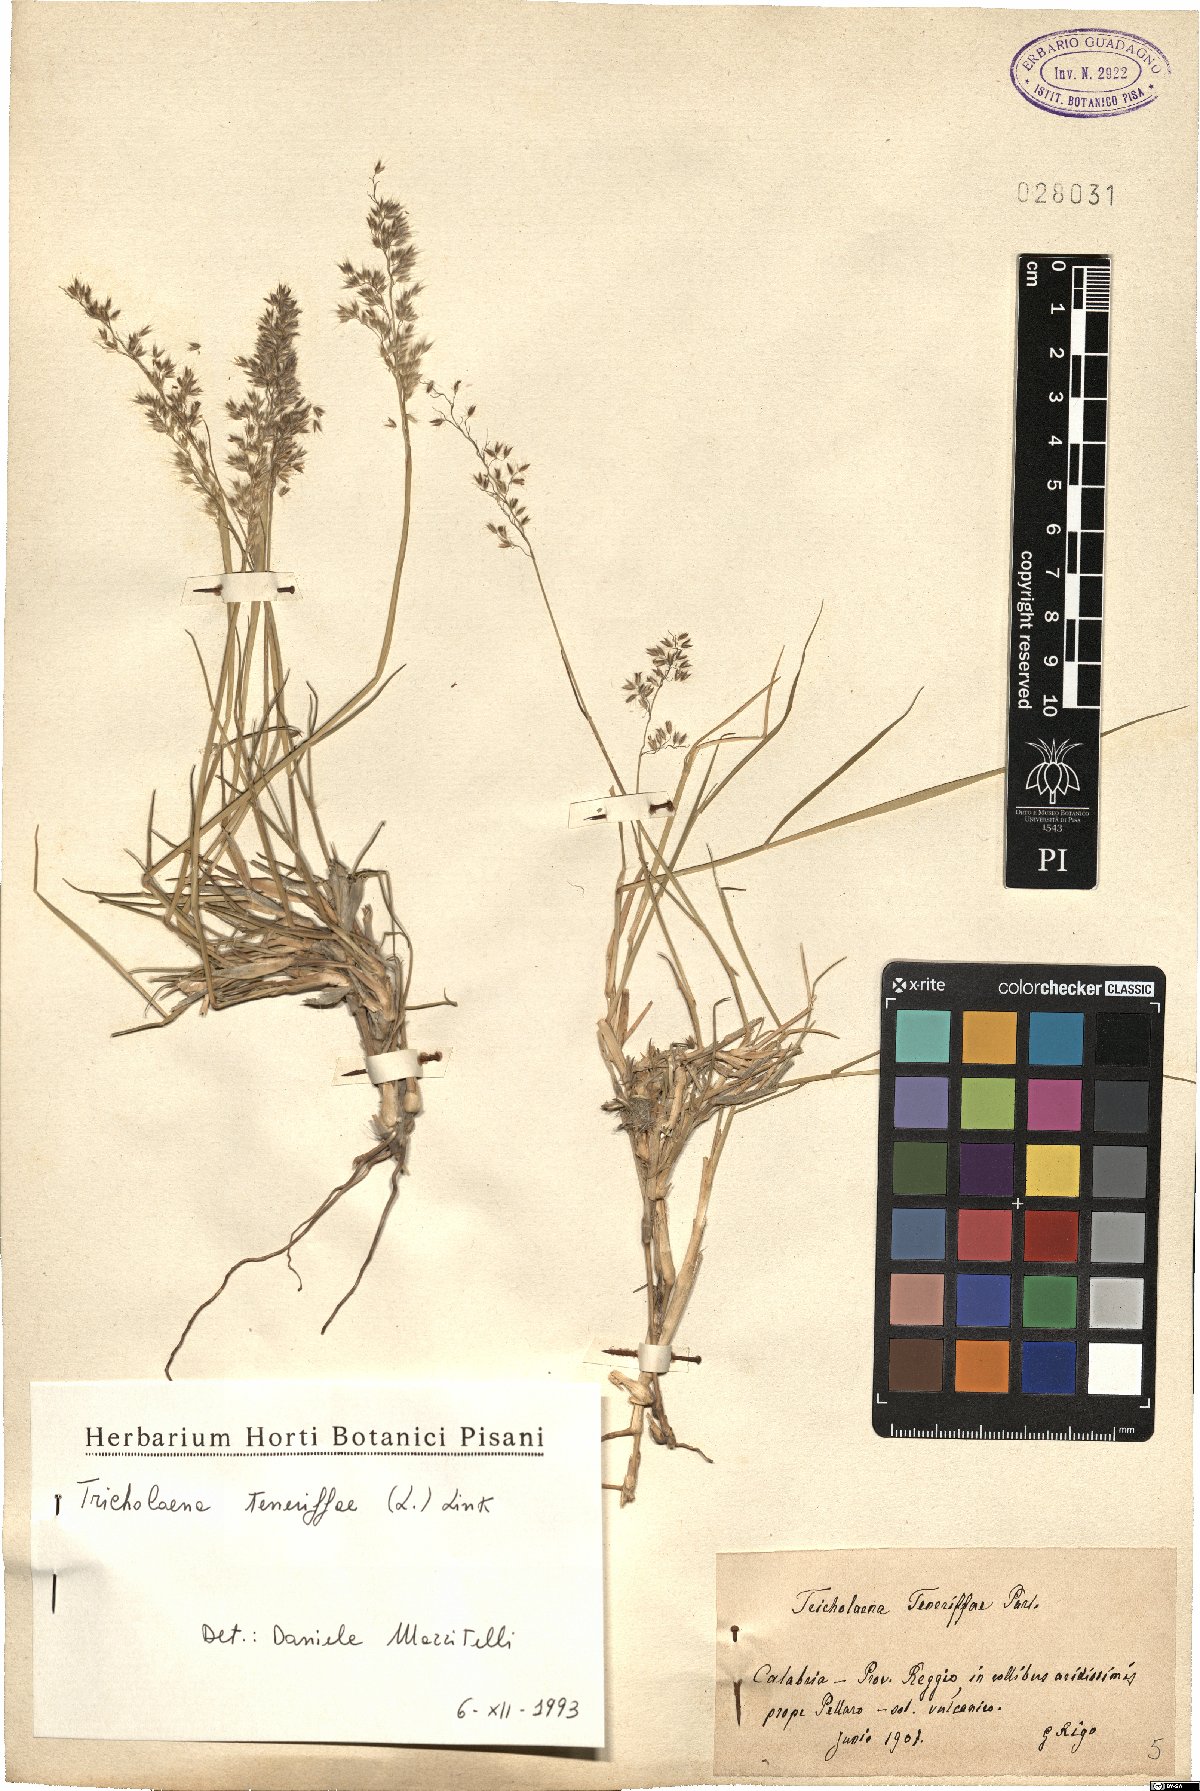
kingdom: Plantae
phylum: Tracheophyta
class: Liliopsida
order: Poales
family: Poaceae
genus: Tricholaena
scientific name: Tricholaena teneriffae
